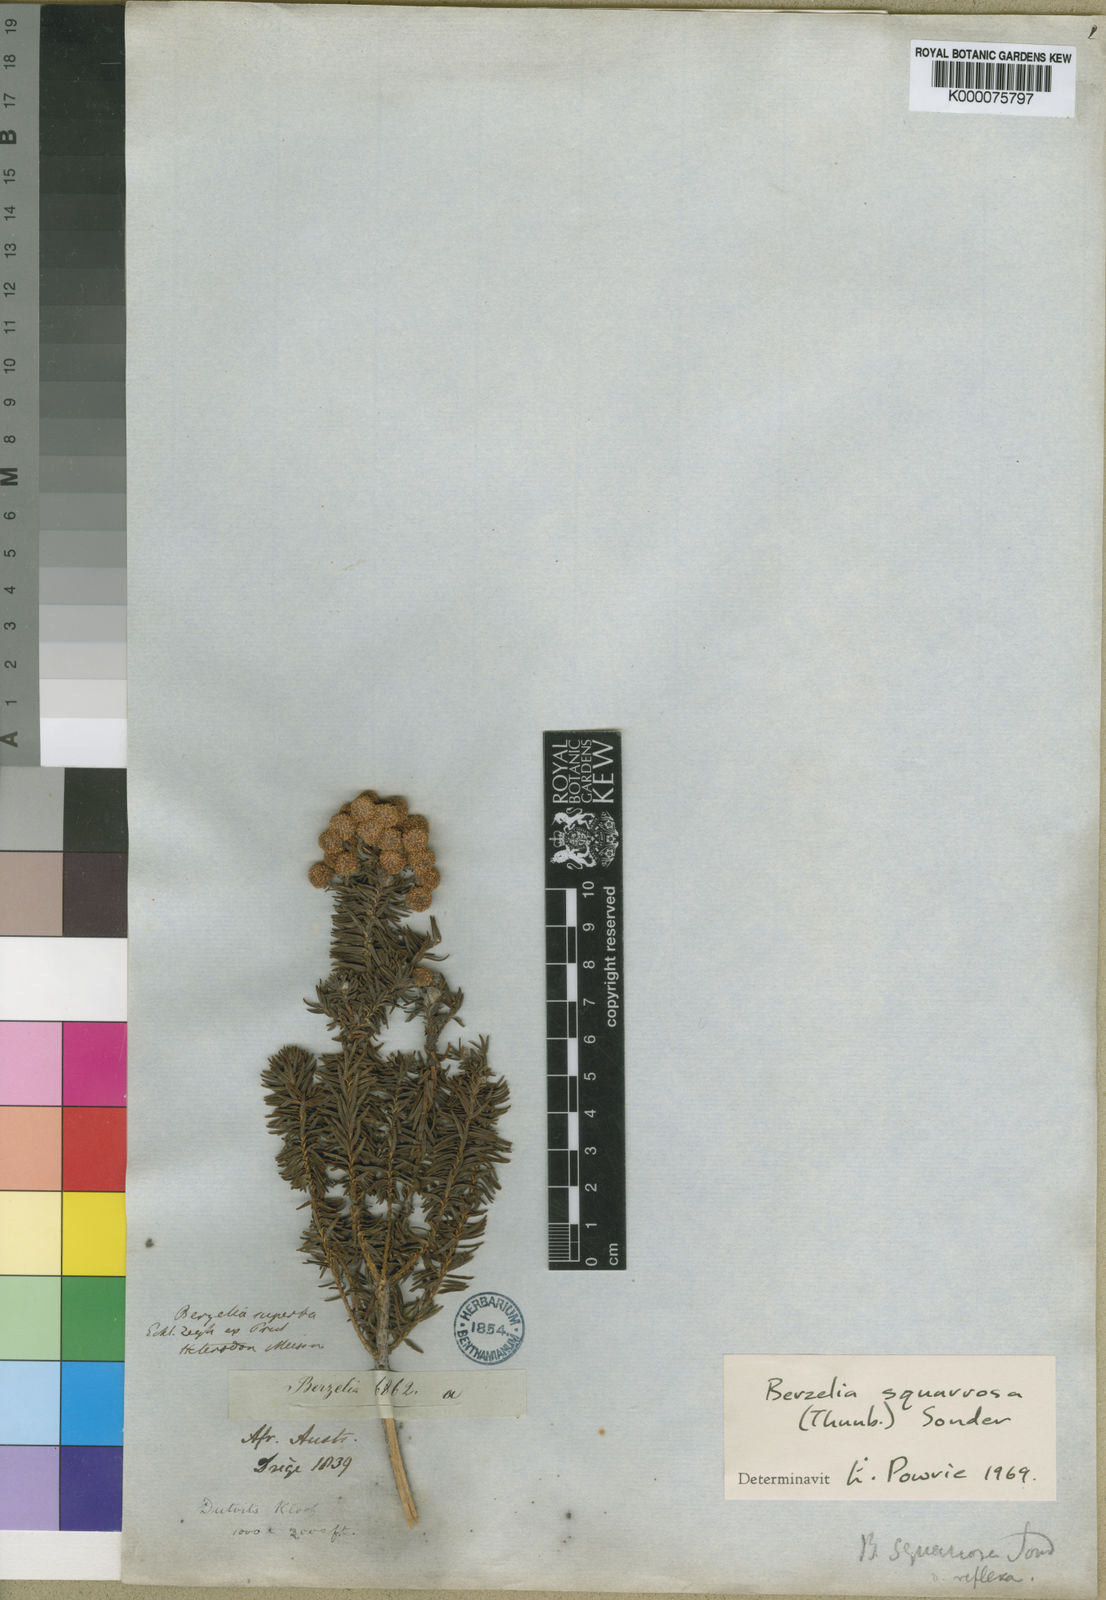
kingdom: Plantae
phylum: Tracheophyta
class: Magnoliopsida
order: Bruniales
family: Bruniaceae
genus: Berzelia
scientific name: Berzelia rubra
